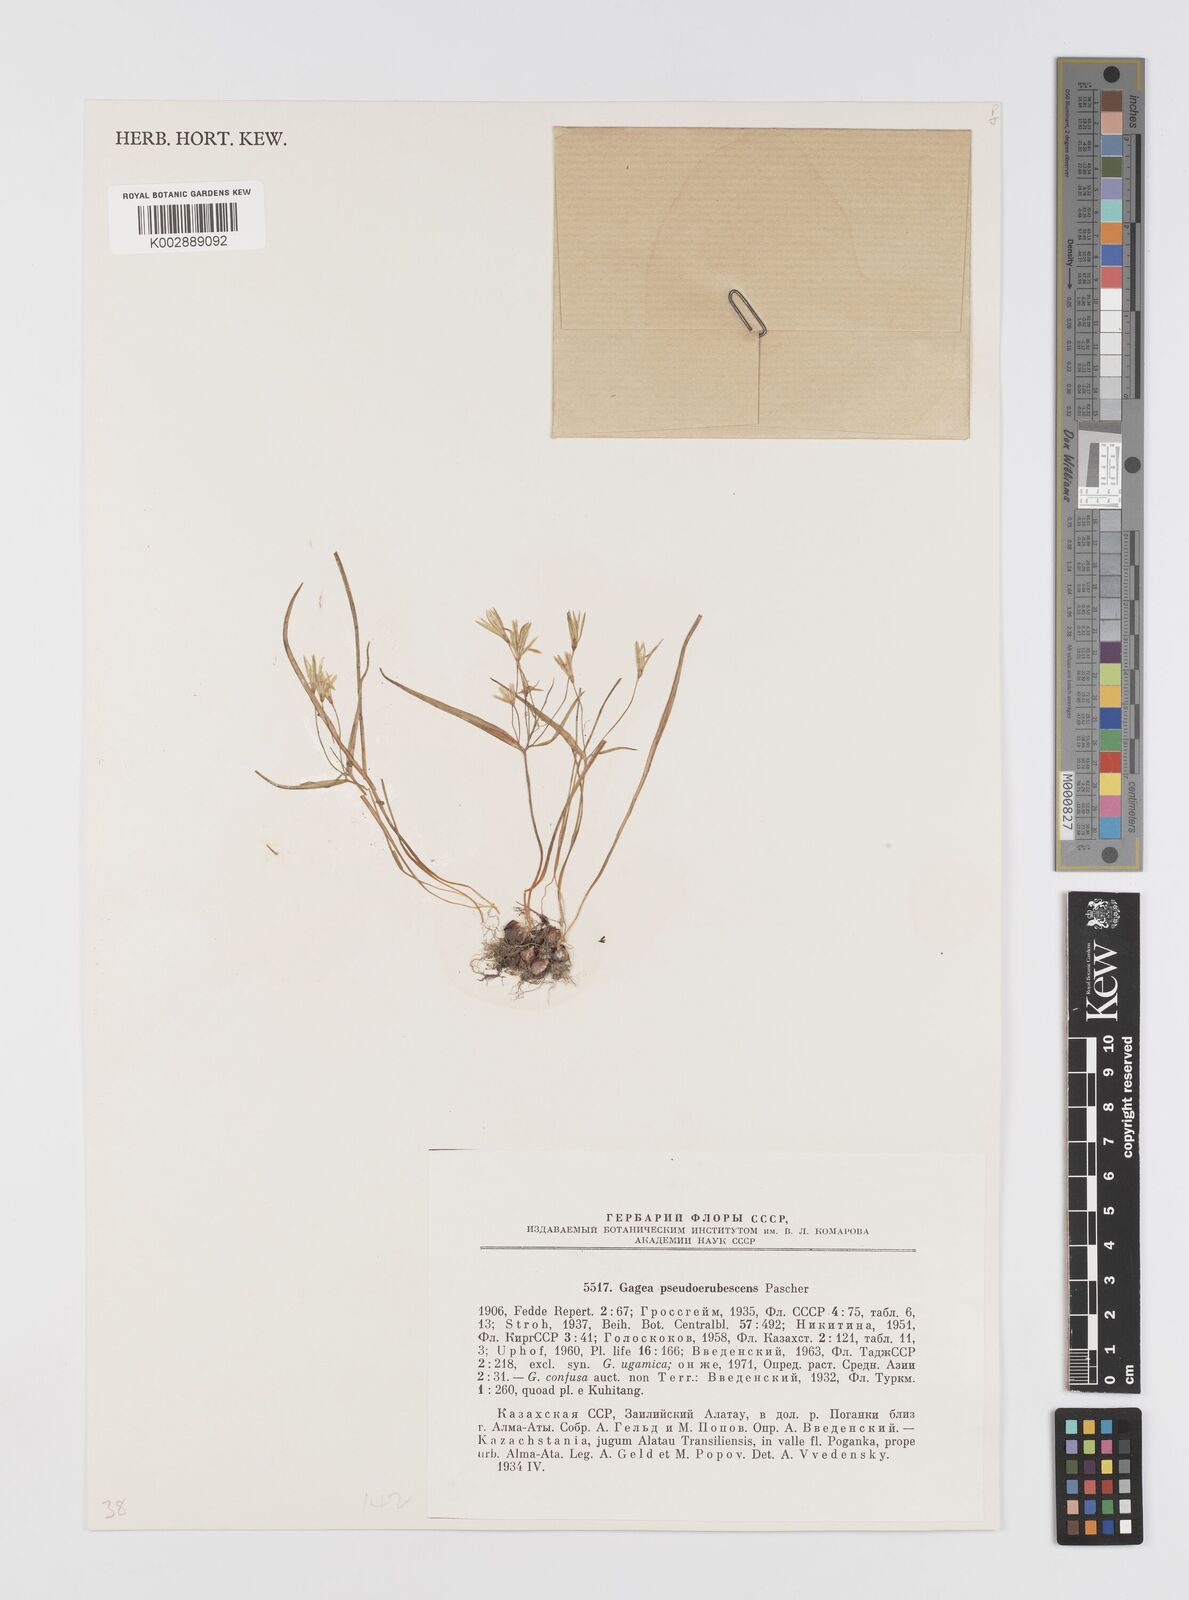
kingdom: Plantae
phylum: Tracheophyta
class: Liliopsida
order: Liliales
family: Liliaceae
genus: Gagea
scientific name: Gagea filiformis
